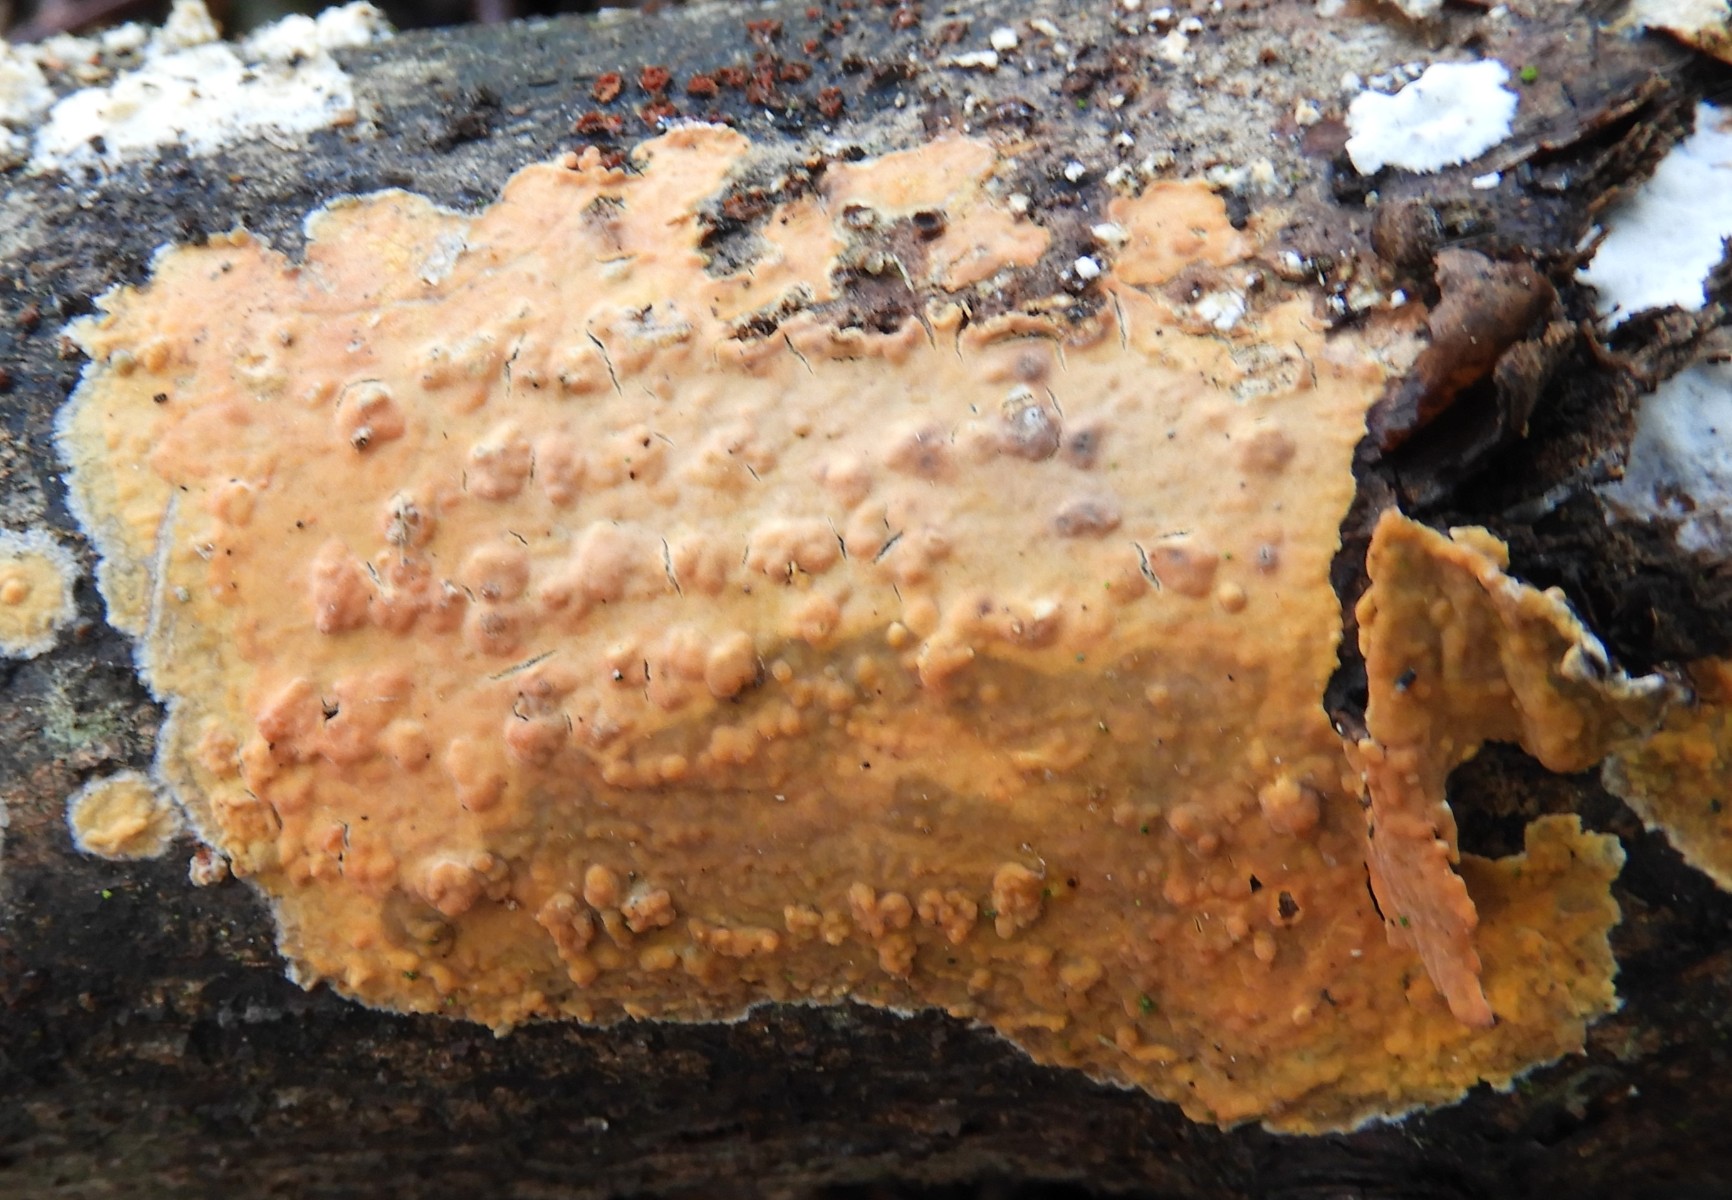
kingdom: Fungi
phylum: Basidiomycota
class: Agaricomycetes
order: Russulales
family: Peniophoraceae
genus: Peniophora
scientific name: Peniophora incarnata
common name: laksefarvet voksskind
